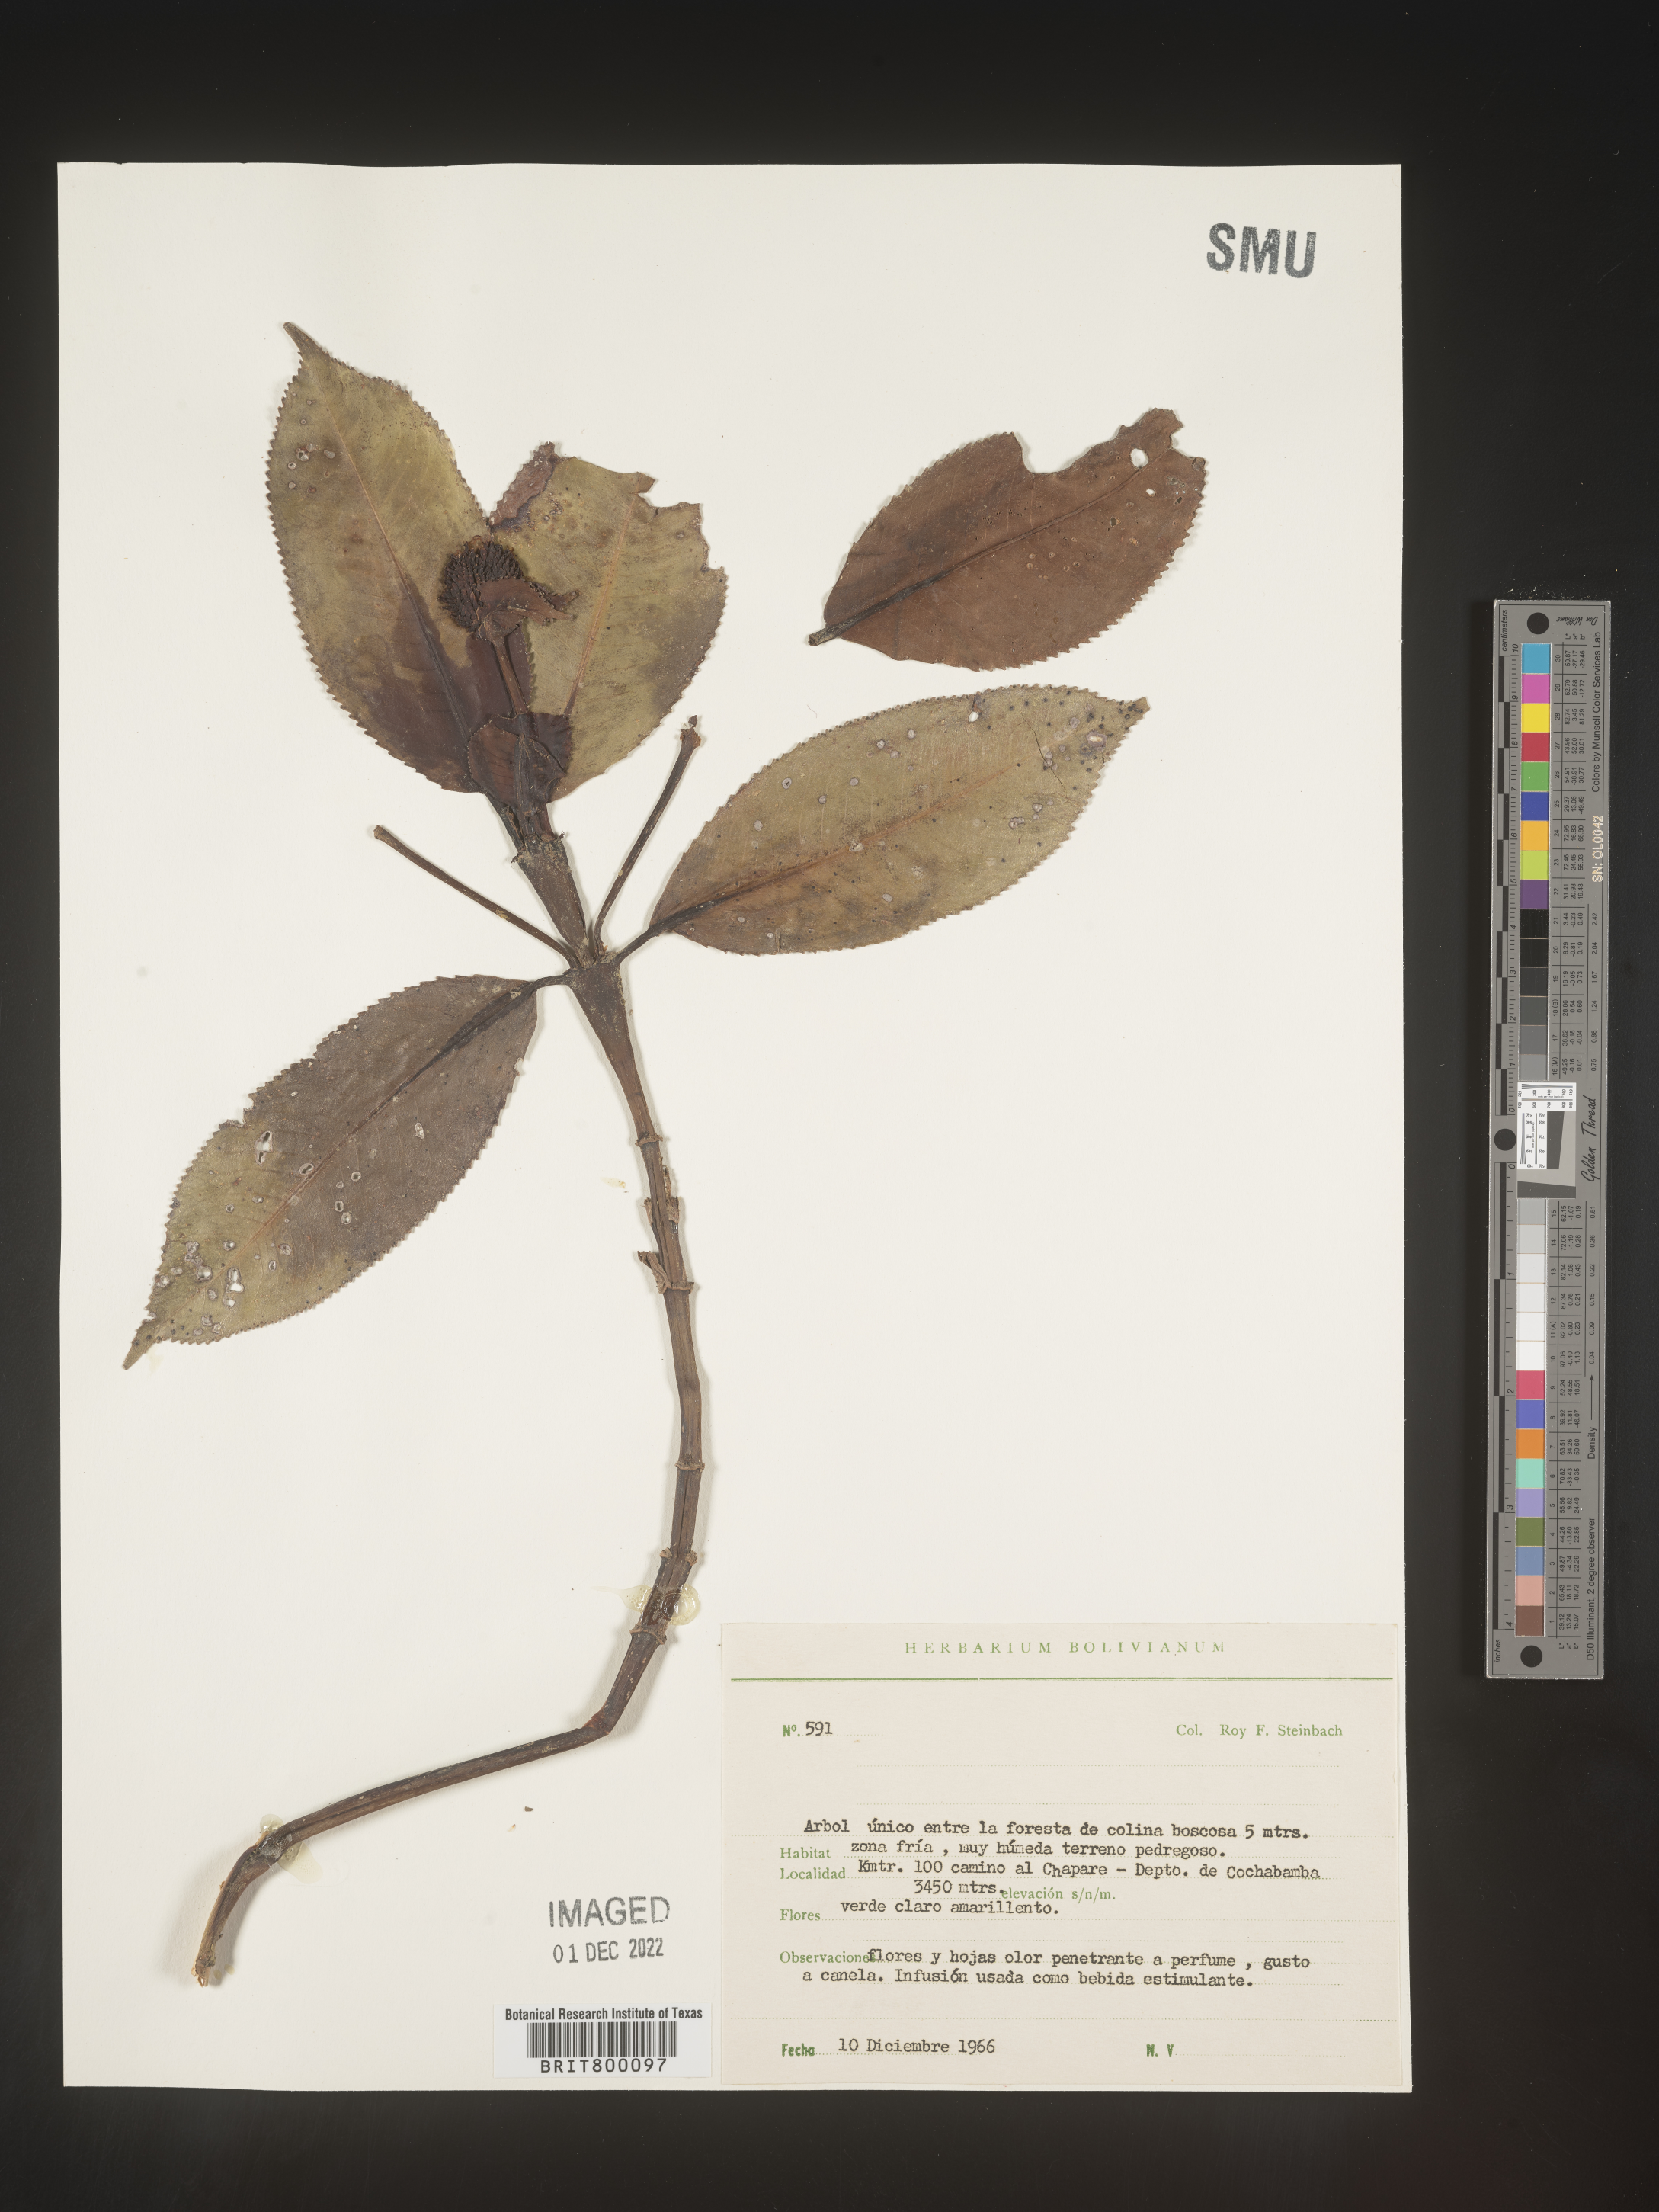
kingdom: Plantae
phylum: Tracheophyta
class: Magnoliopsida
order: Chloranthales
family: Chloranthaceae
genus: Hedyosmum
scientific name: Hedyosmum
